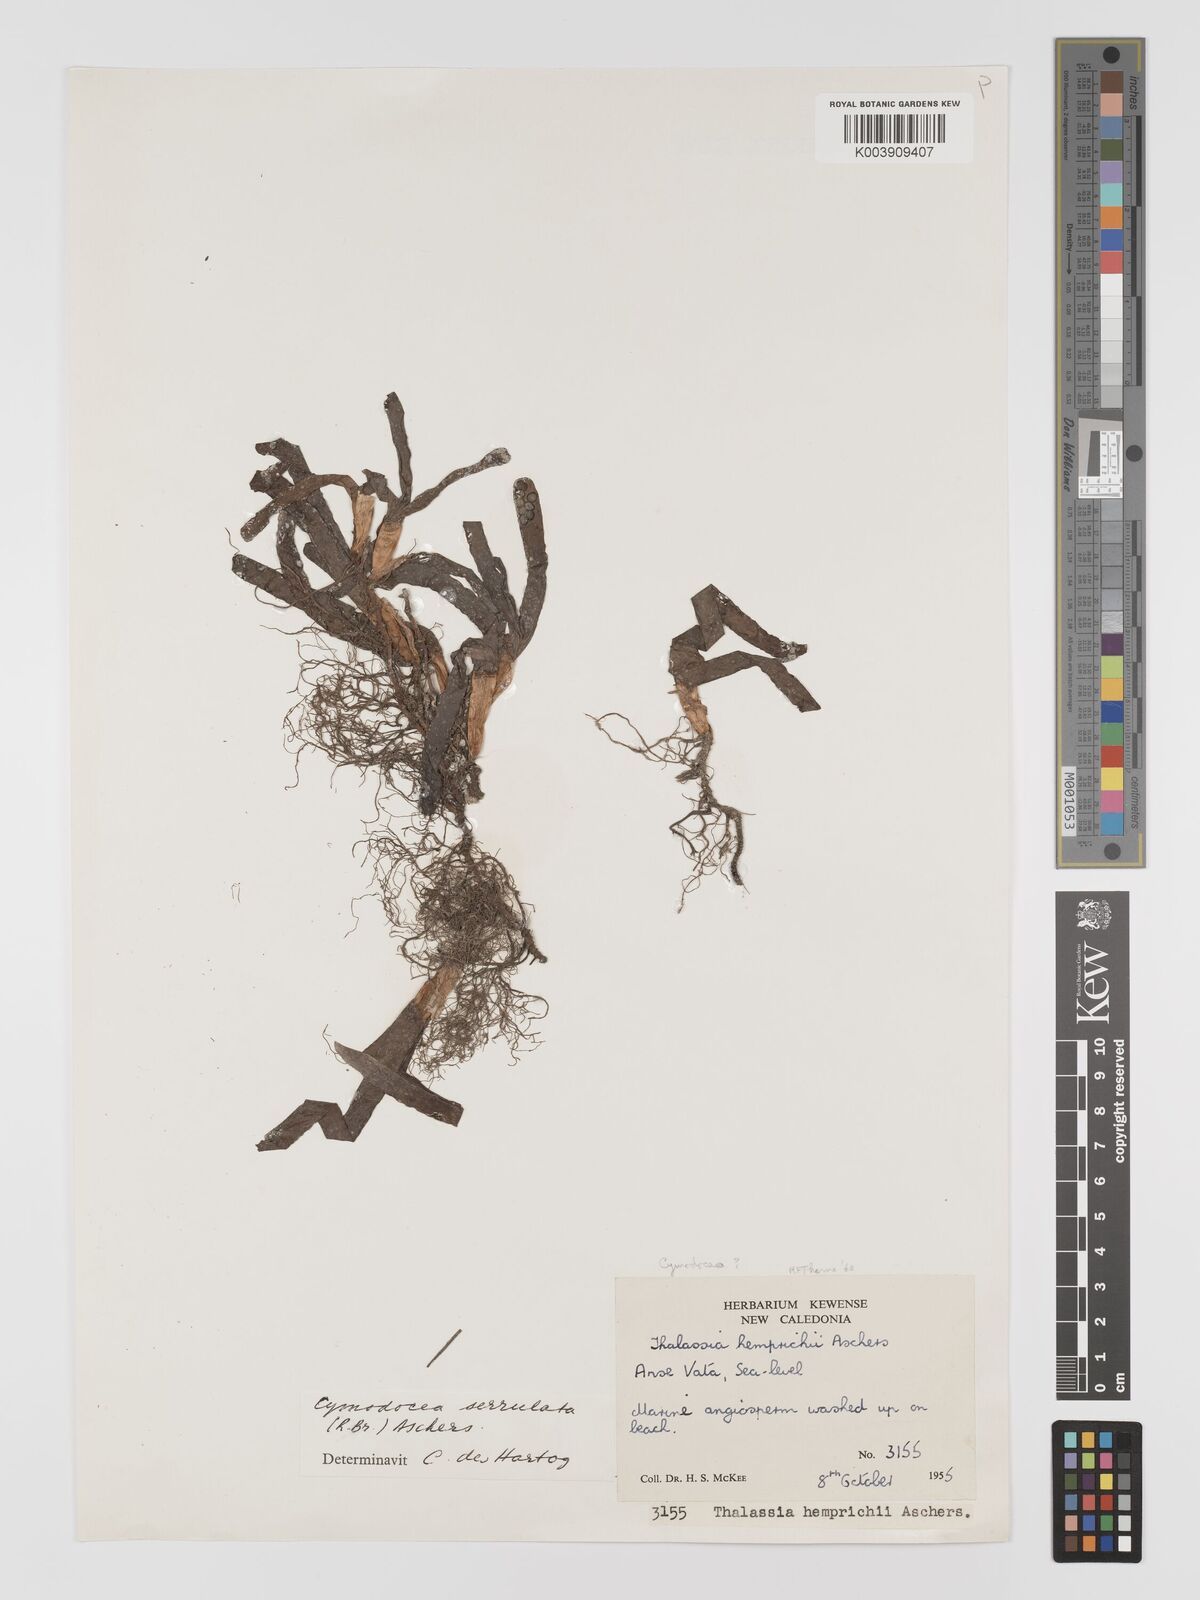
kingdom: Plantae
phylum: Tracheophyta
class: Liliopsida
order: Alismatales
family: Cymodoceaceae
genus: Oceana
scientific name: Oceana serrulata
